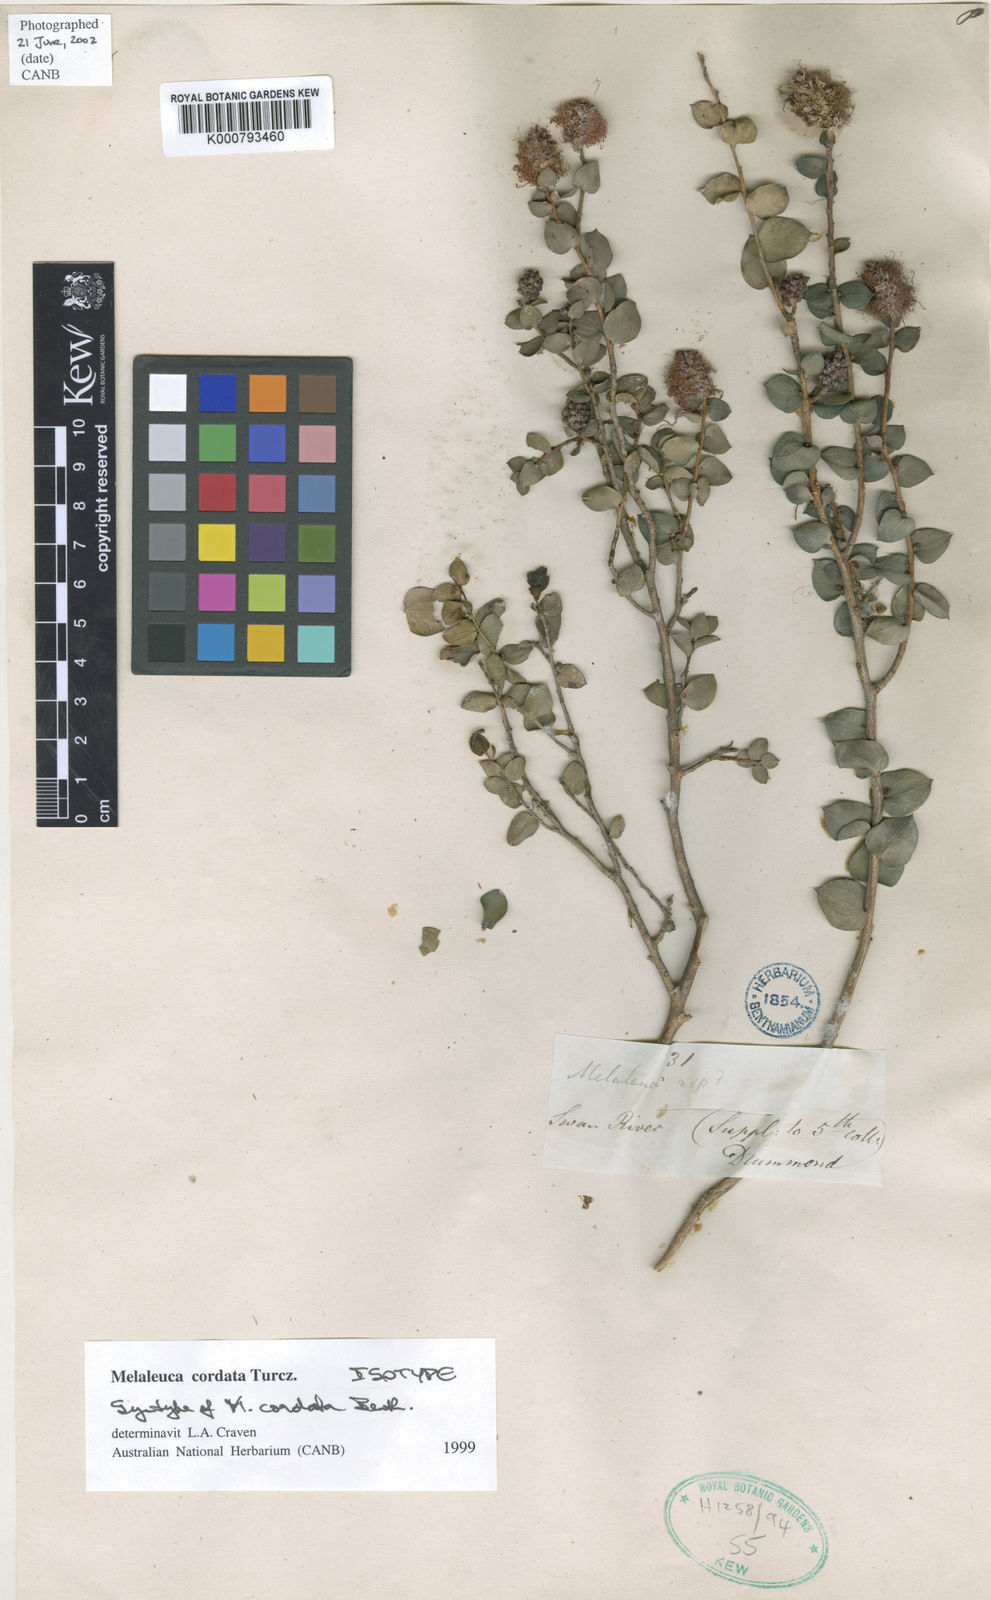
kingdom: Plantae
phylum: Tracheophyta
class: Magnoliopsida
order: Myrtales
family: Myrtaceae
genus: Melaleuca
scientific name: Melaleuca cordata
